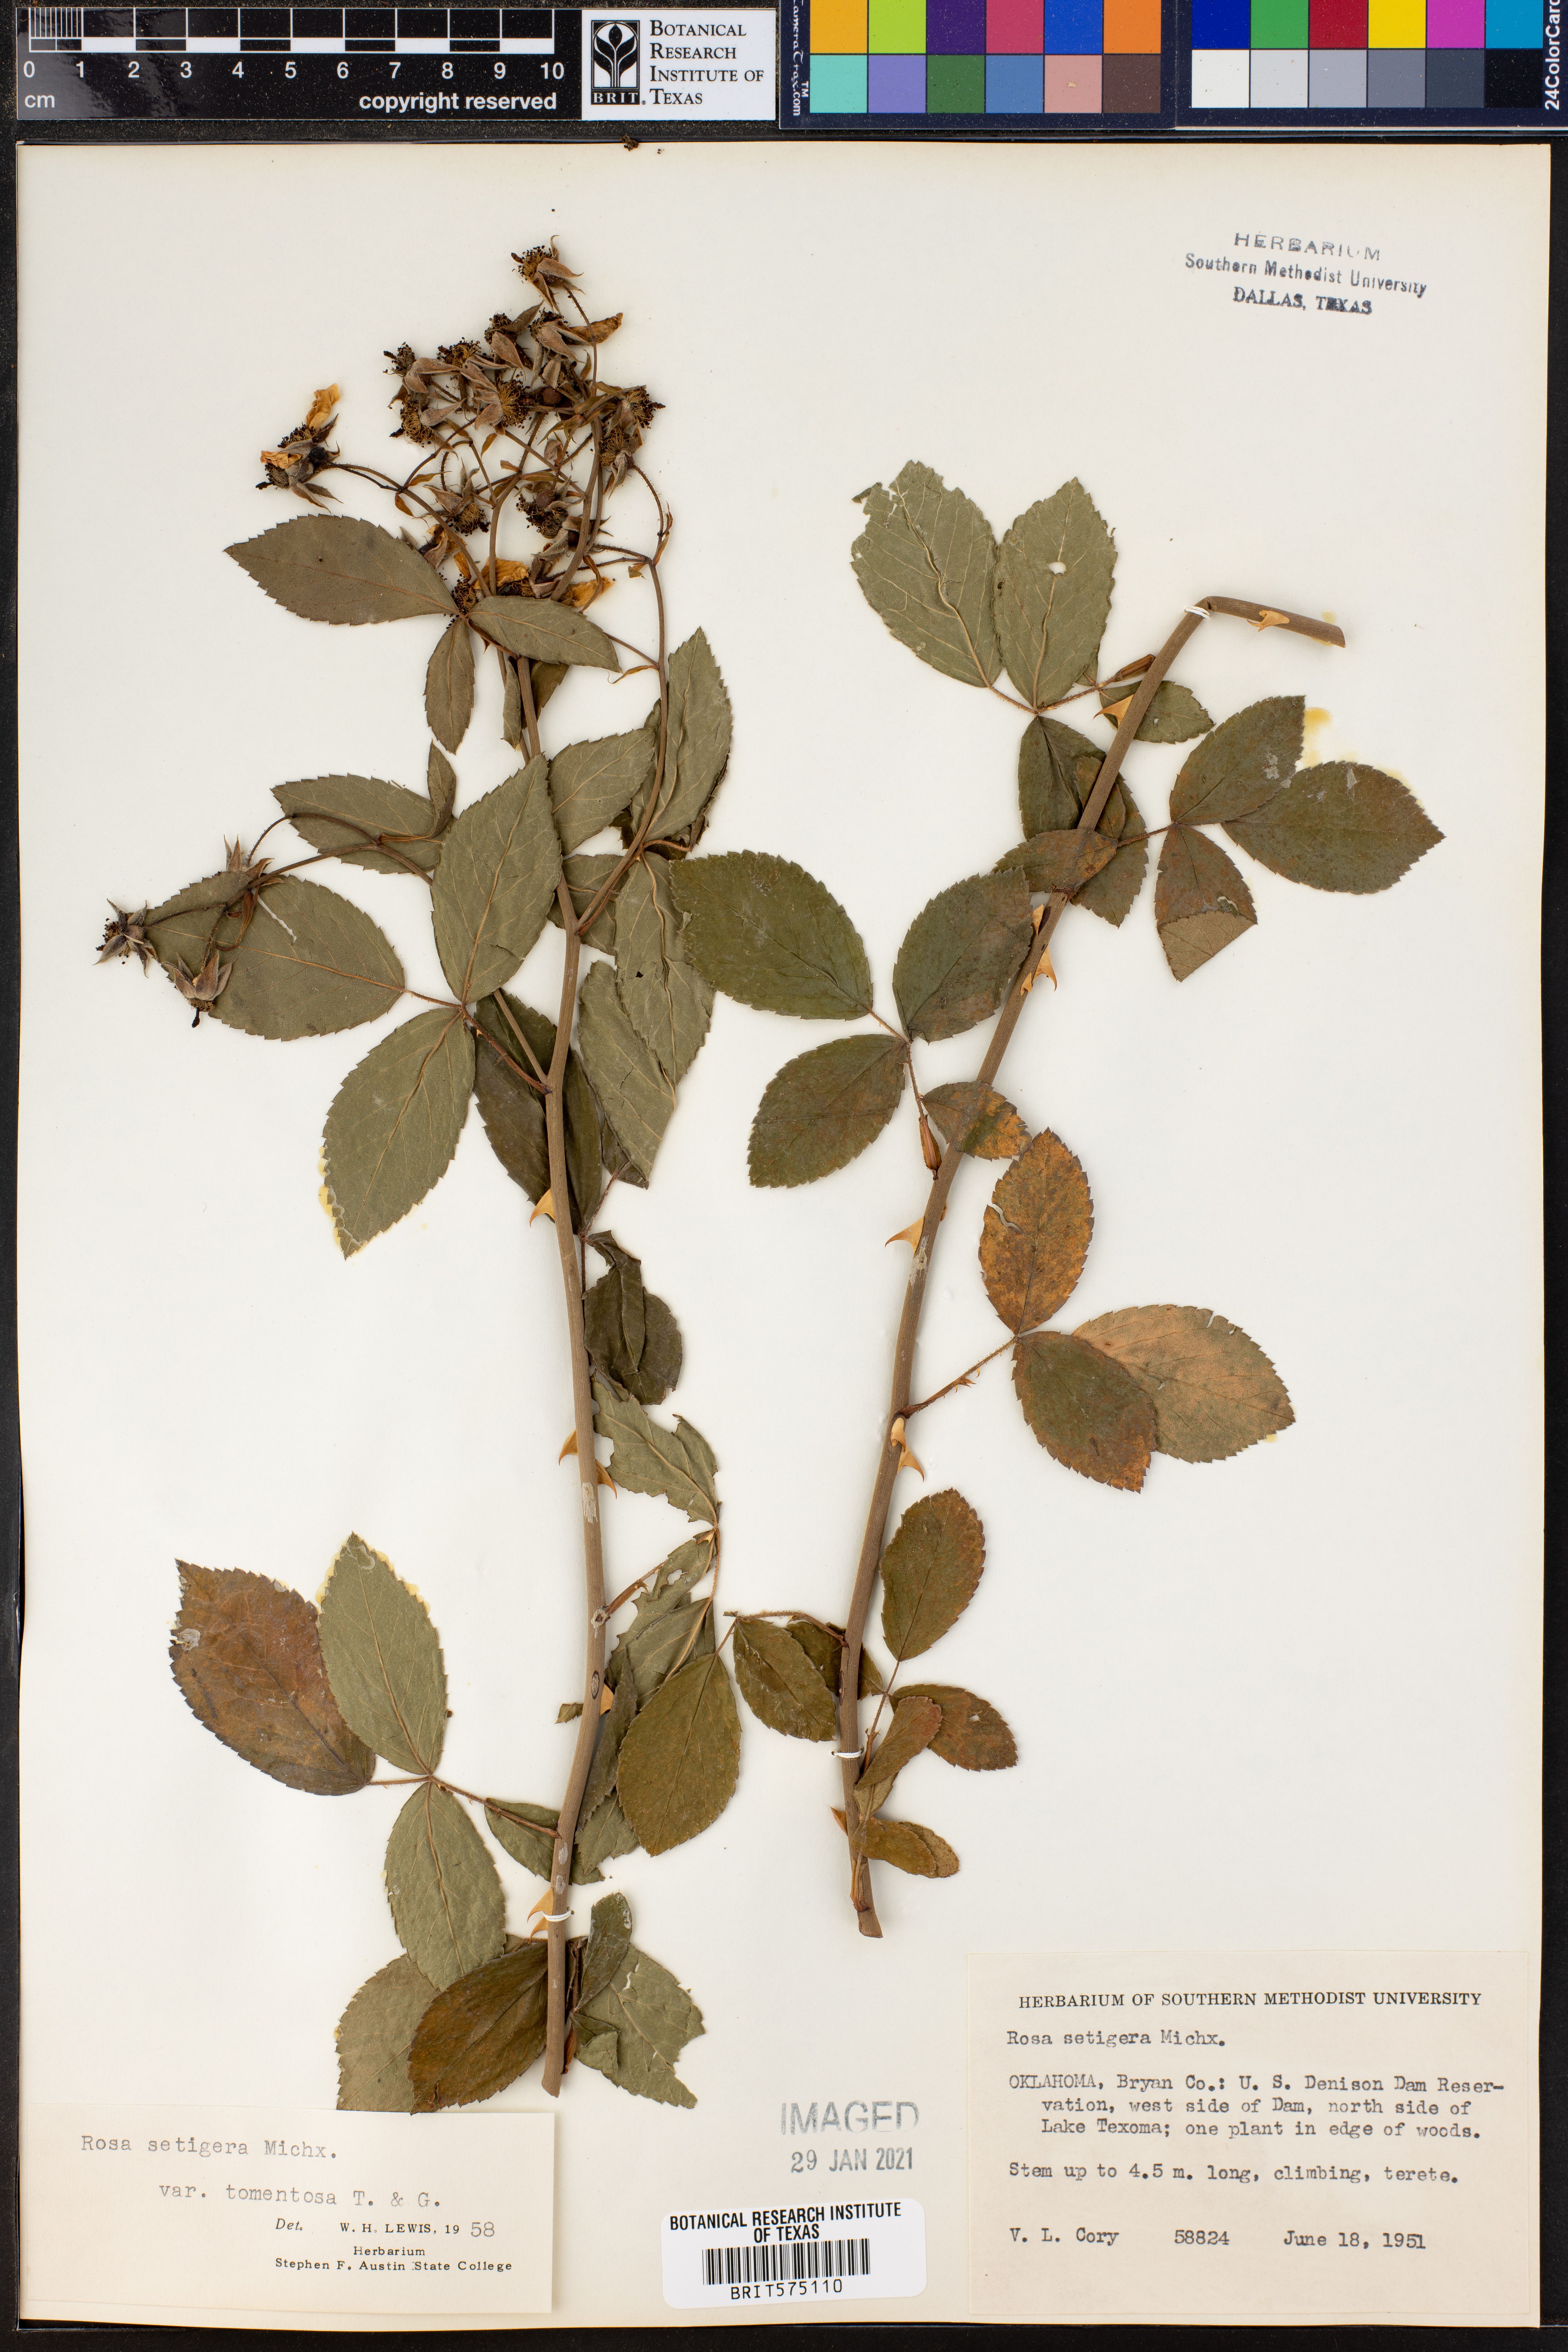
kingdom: Plantae
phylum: Tracheophyta
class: Magnoliopsida
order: Rosales
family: Rosaceae
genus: Rosa
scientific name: Rosa setigera
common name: Prairie rose
